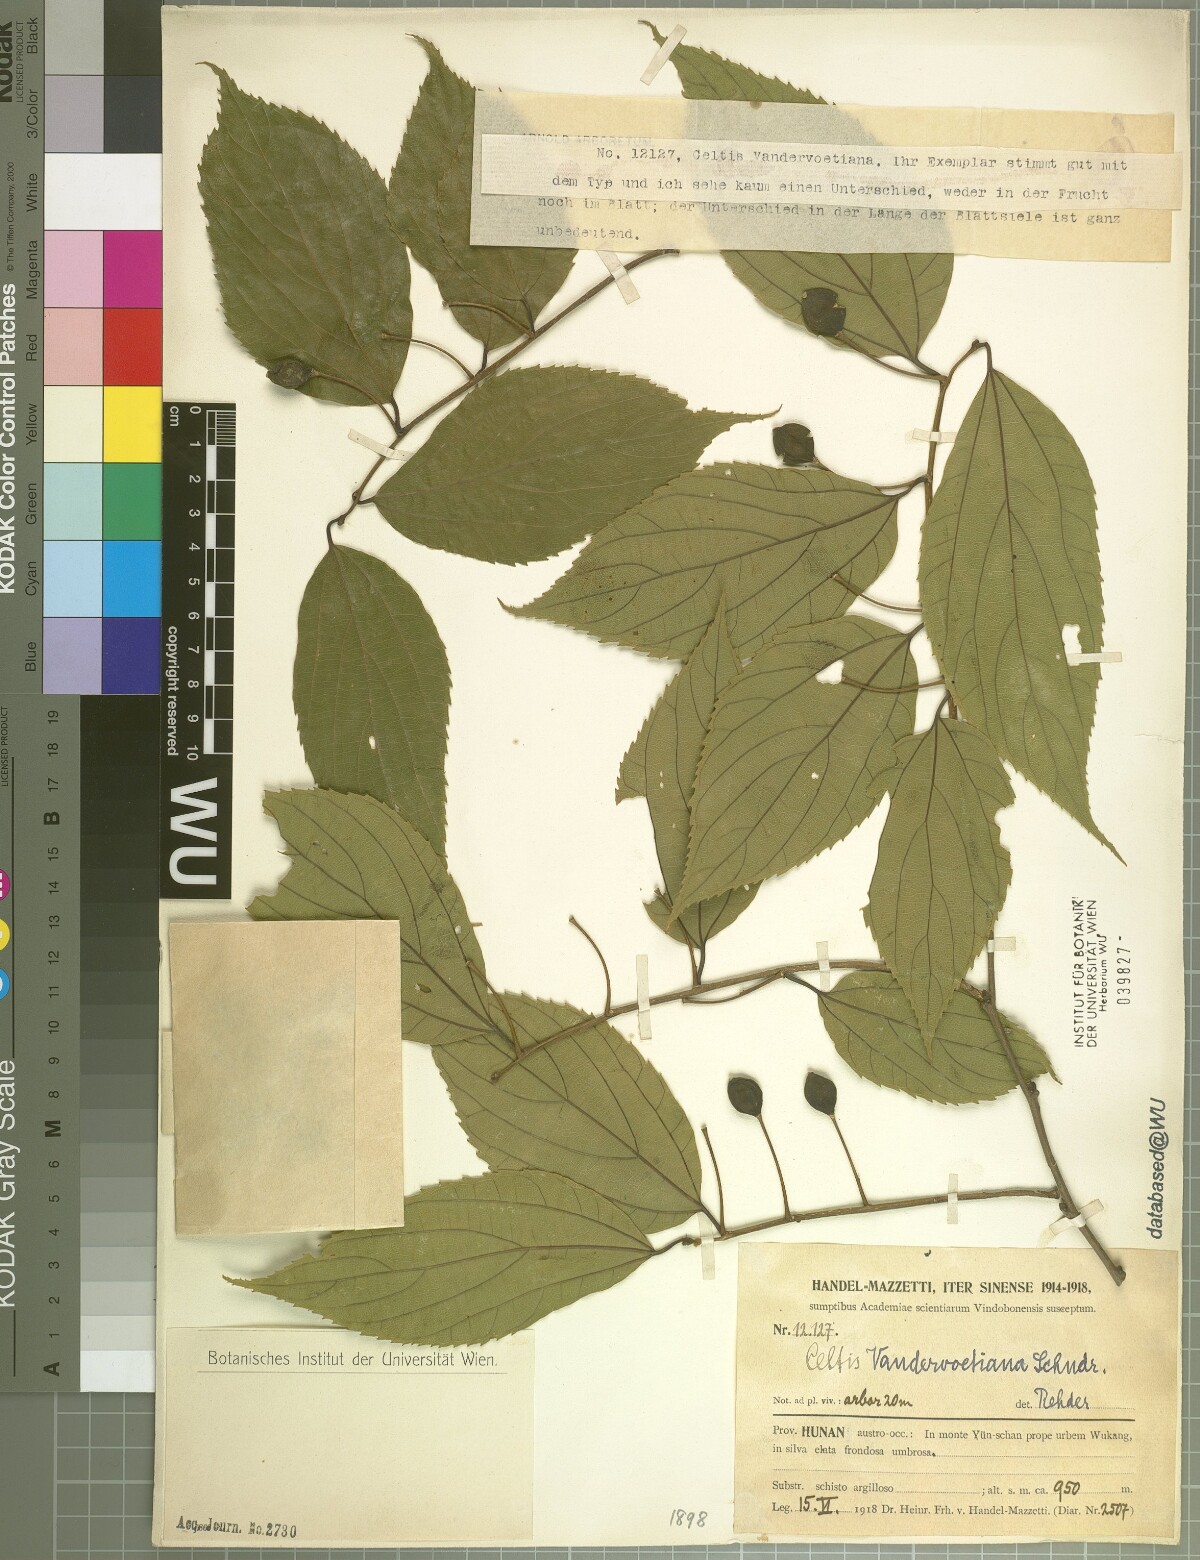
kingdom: Plantae
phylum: Tracheophyta
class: Magnoliopsida
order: Rosales
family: Cannabaceae
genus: Celtis
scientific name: Celtis vandervoetiana
